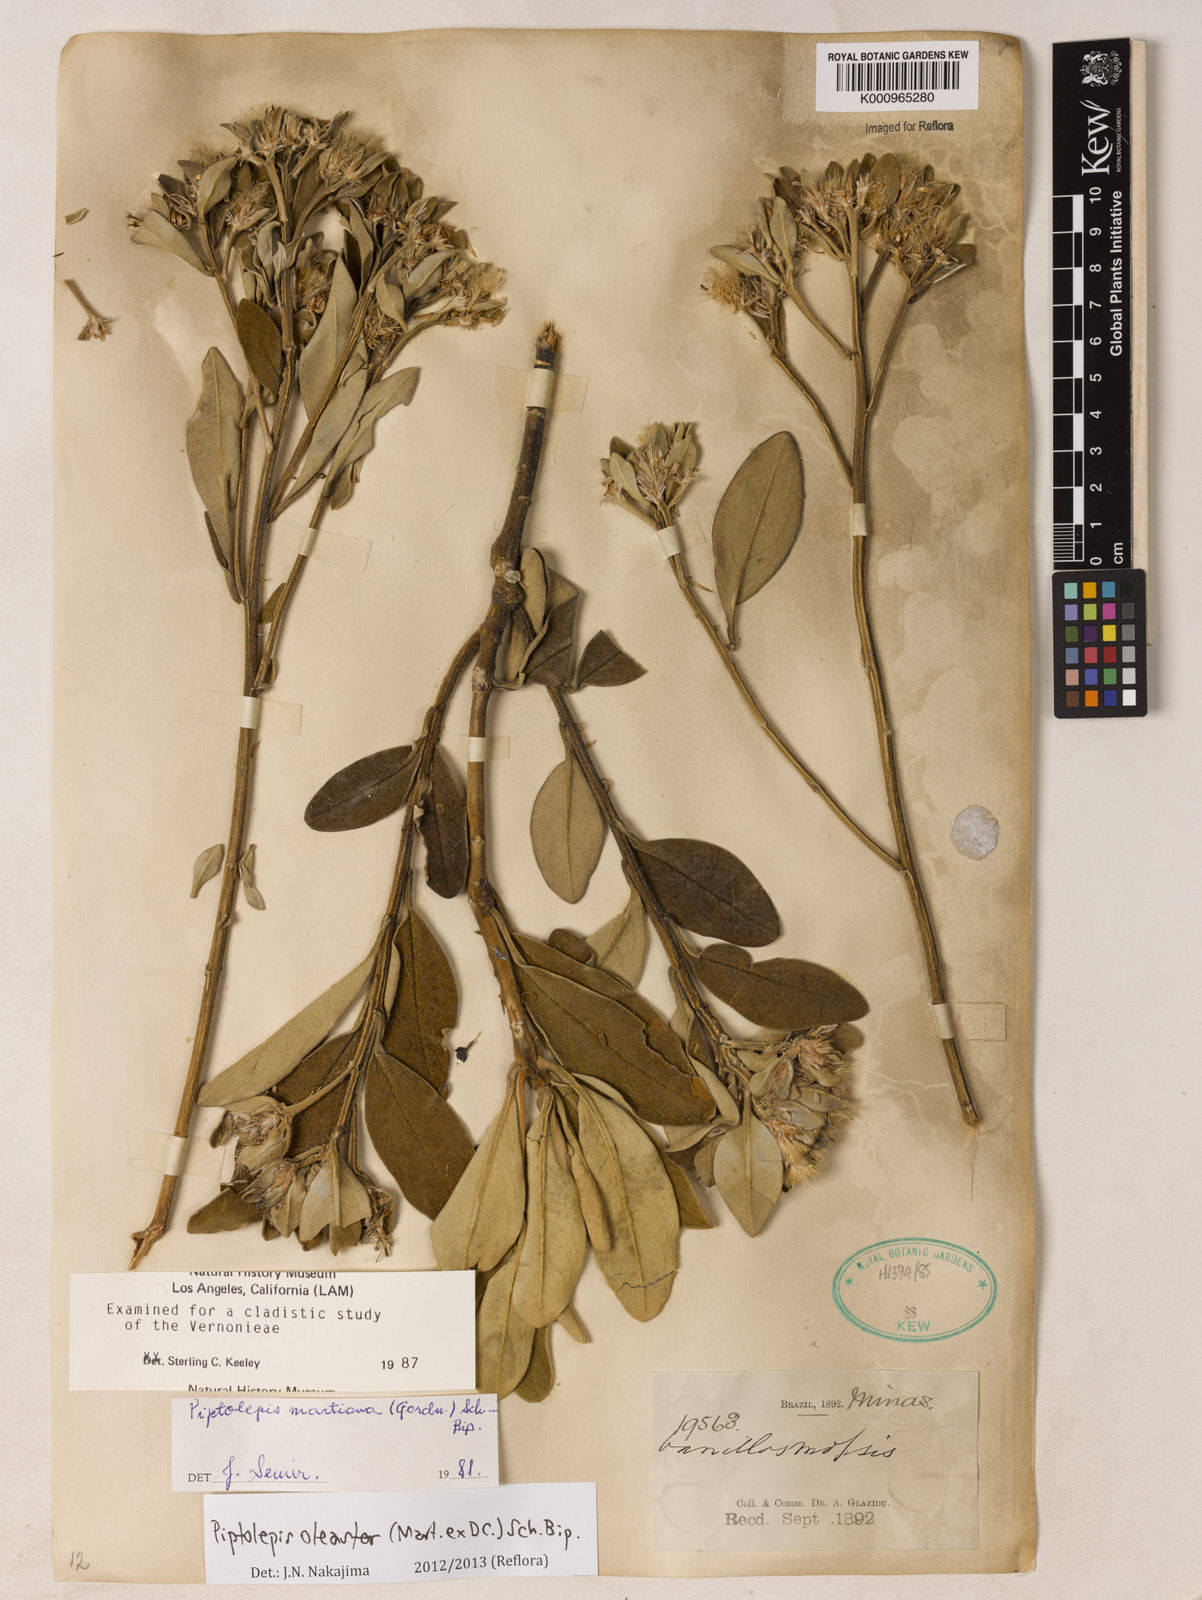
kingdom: Plantae
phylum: Tracheophyta
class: Magnoliopsida
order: Asterales
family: Asteraceae
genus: Piptolepis
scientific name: Piptolepis oleaster
